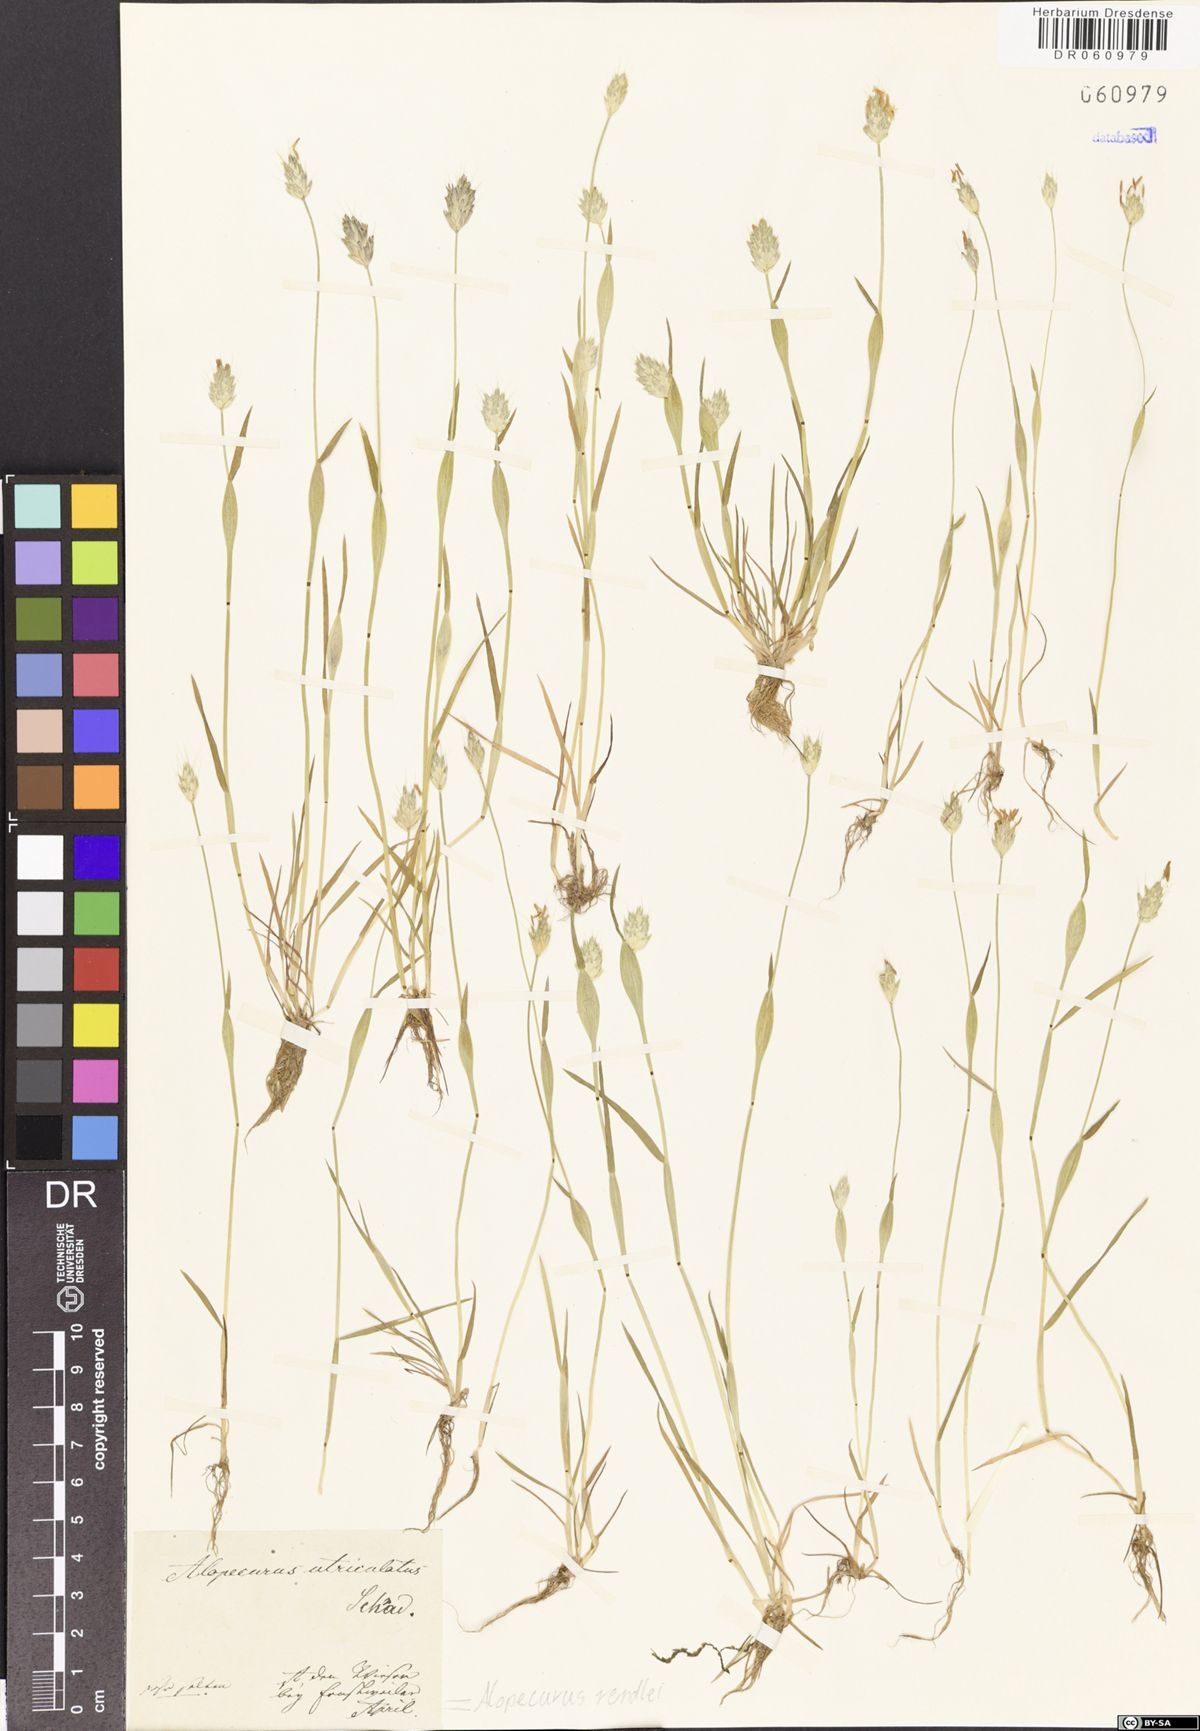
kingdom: Plantae
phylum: Tracheophyta
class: Liliopsida
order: Poales
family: Poaceae
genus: Alopecurus
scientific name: Alopecurus rendlei
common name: Rendle's meadow foxtail
